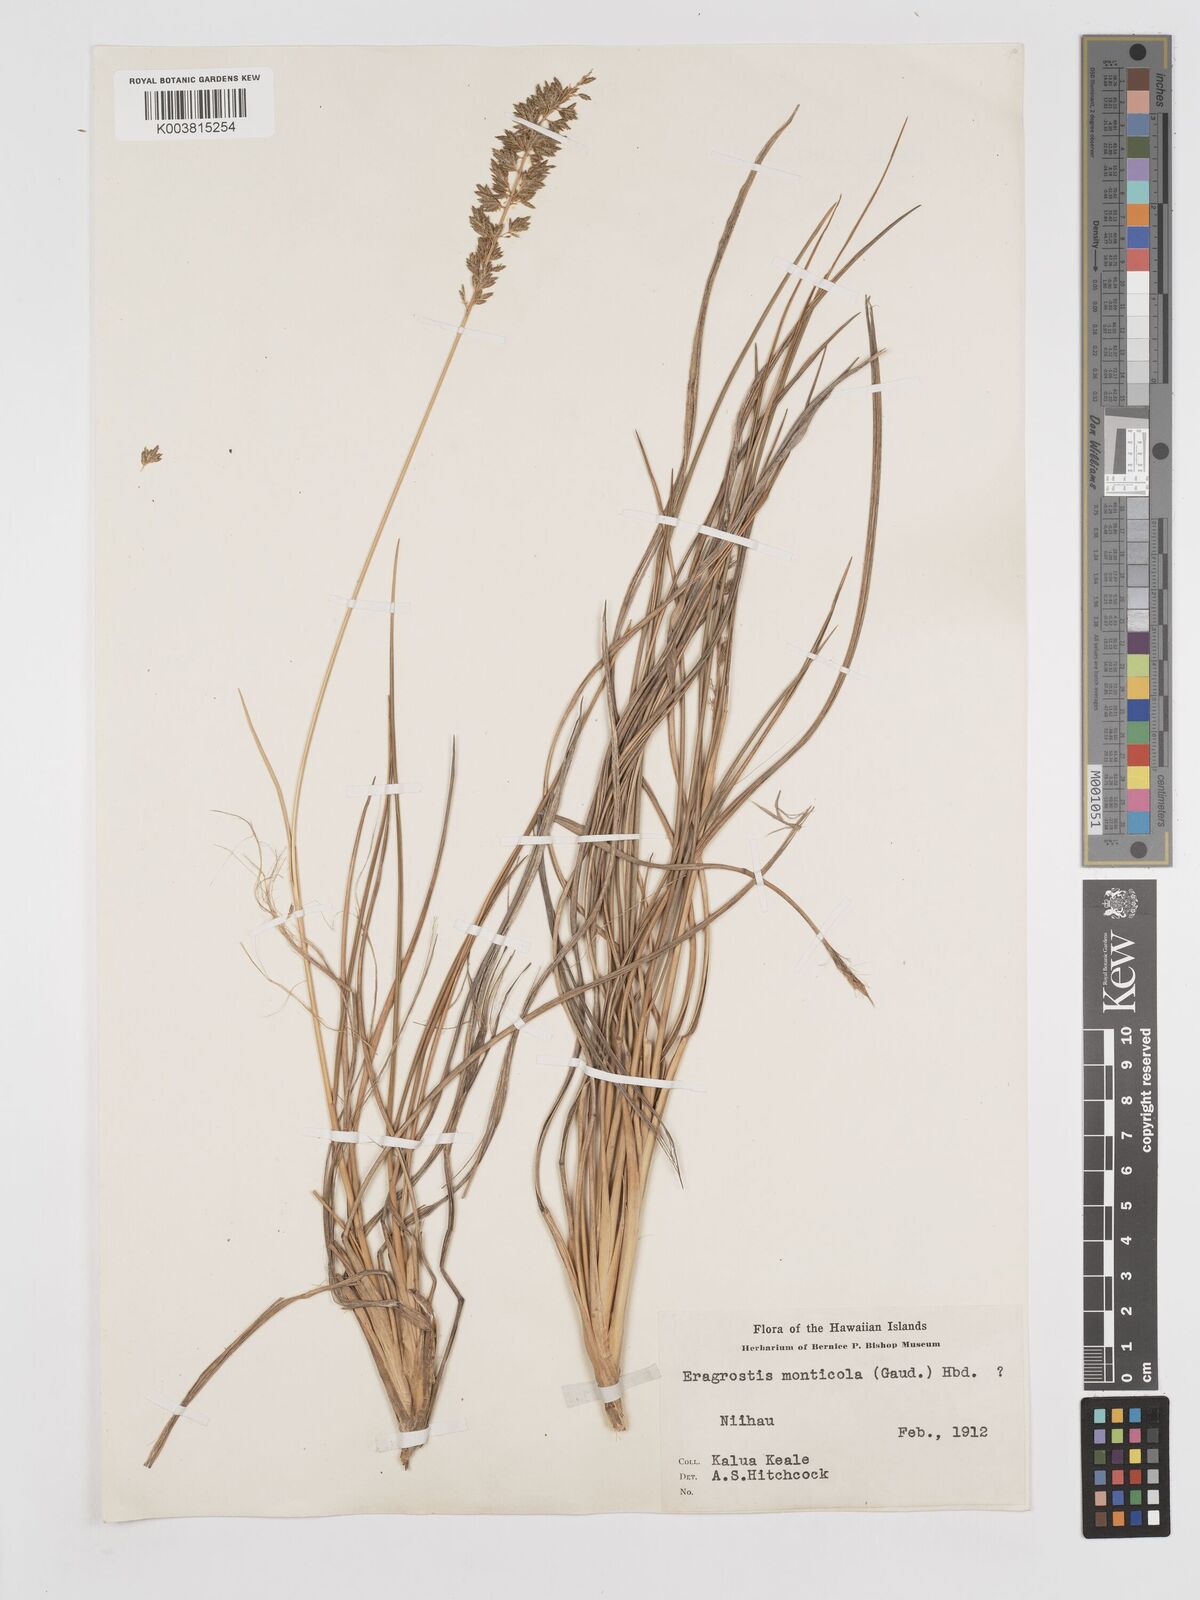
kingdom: Plantae
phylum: Tracheophyta
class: Liliopsida
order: Poales
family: Poaceae
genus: Eragrostis
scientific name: Eragrostis variabilis
